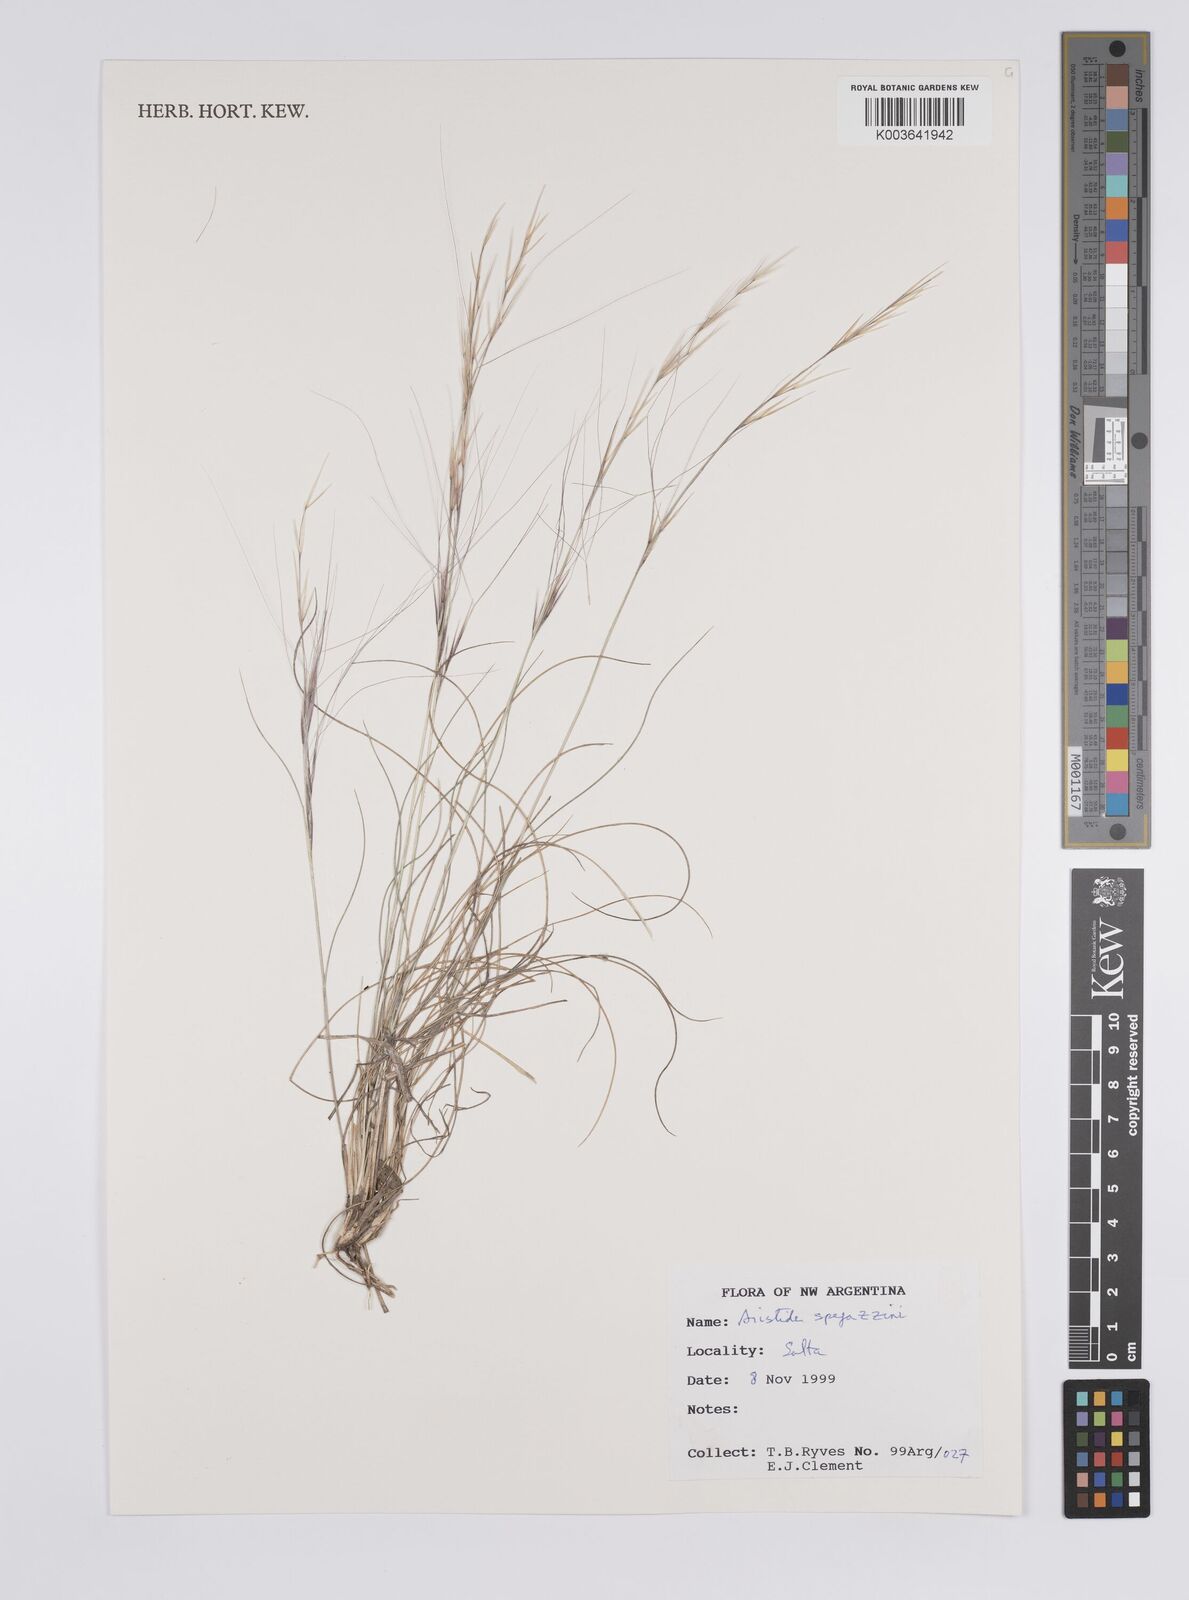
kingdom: Plantae
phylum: Tracheophyta
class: Liliopsida
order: Poales
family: Poaceae
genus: Aristida
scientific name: Aristida spegazzinii
